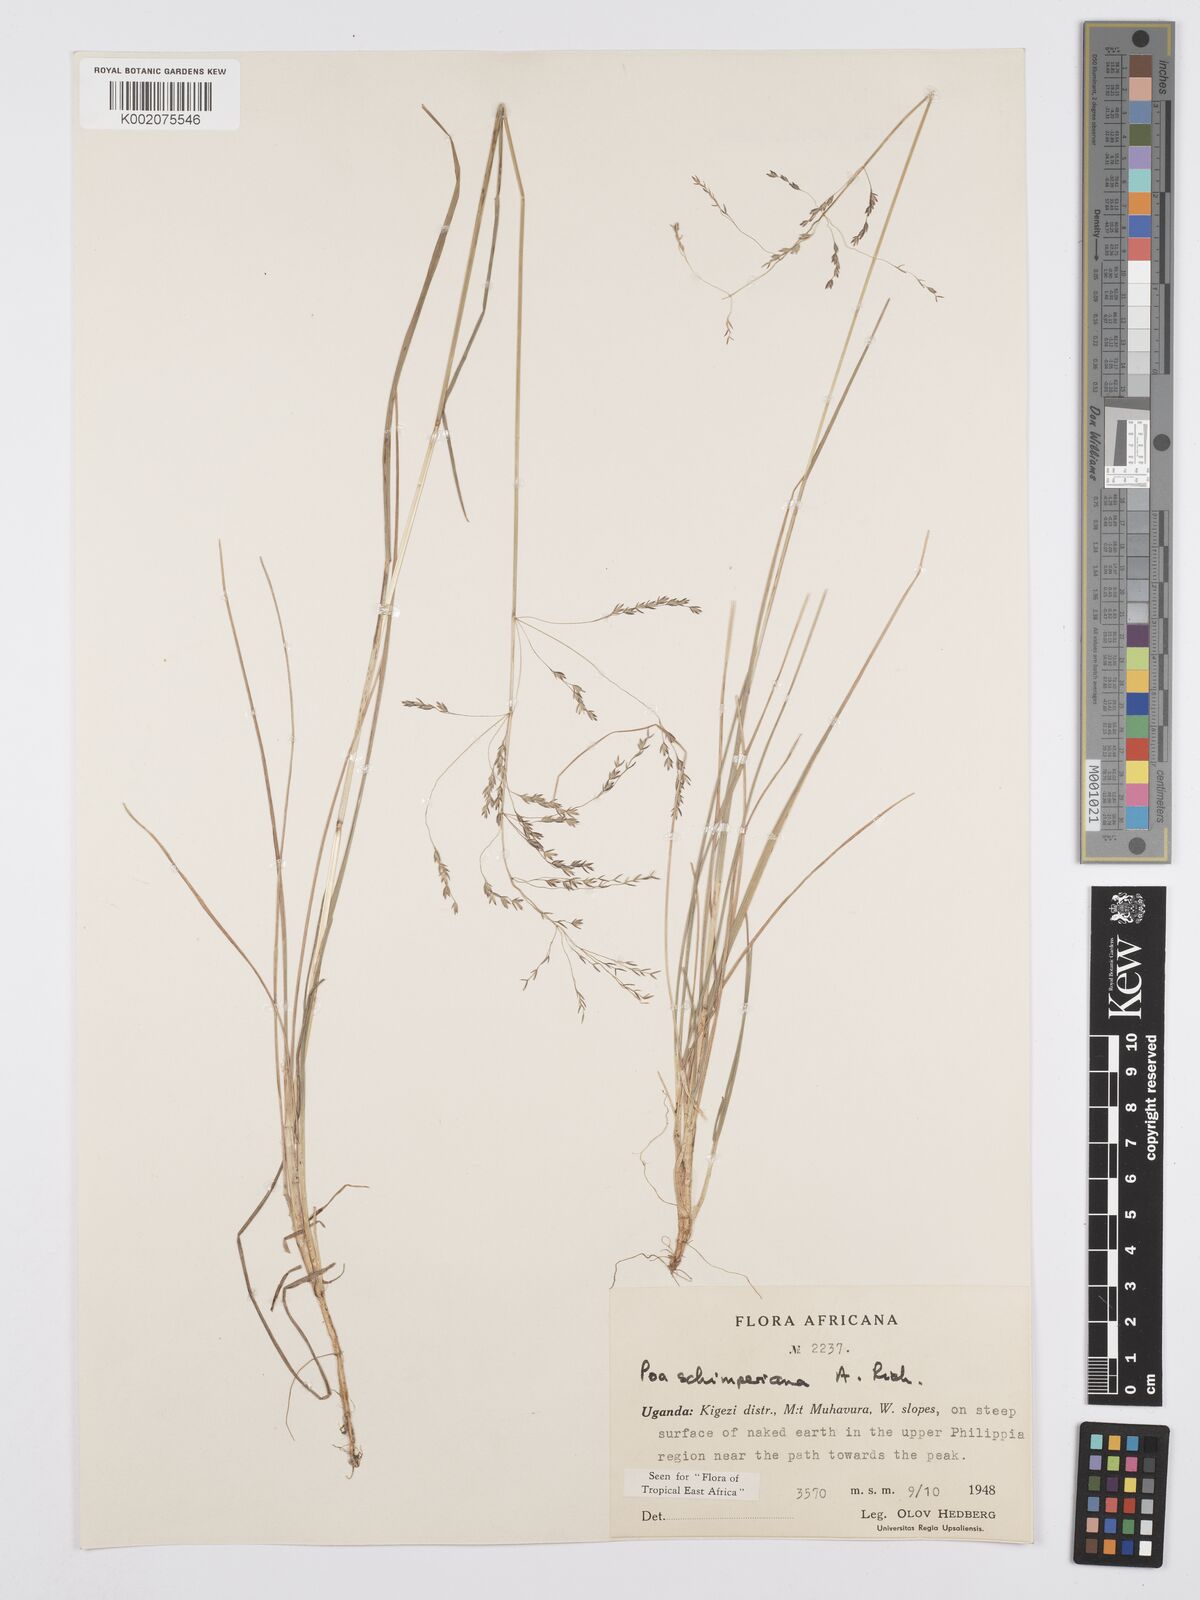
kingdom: Plantae
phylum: Tracheophyta
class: Liliopsida
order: Poales
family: Poaceae
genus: Poa
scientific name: Poa schimperiana
